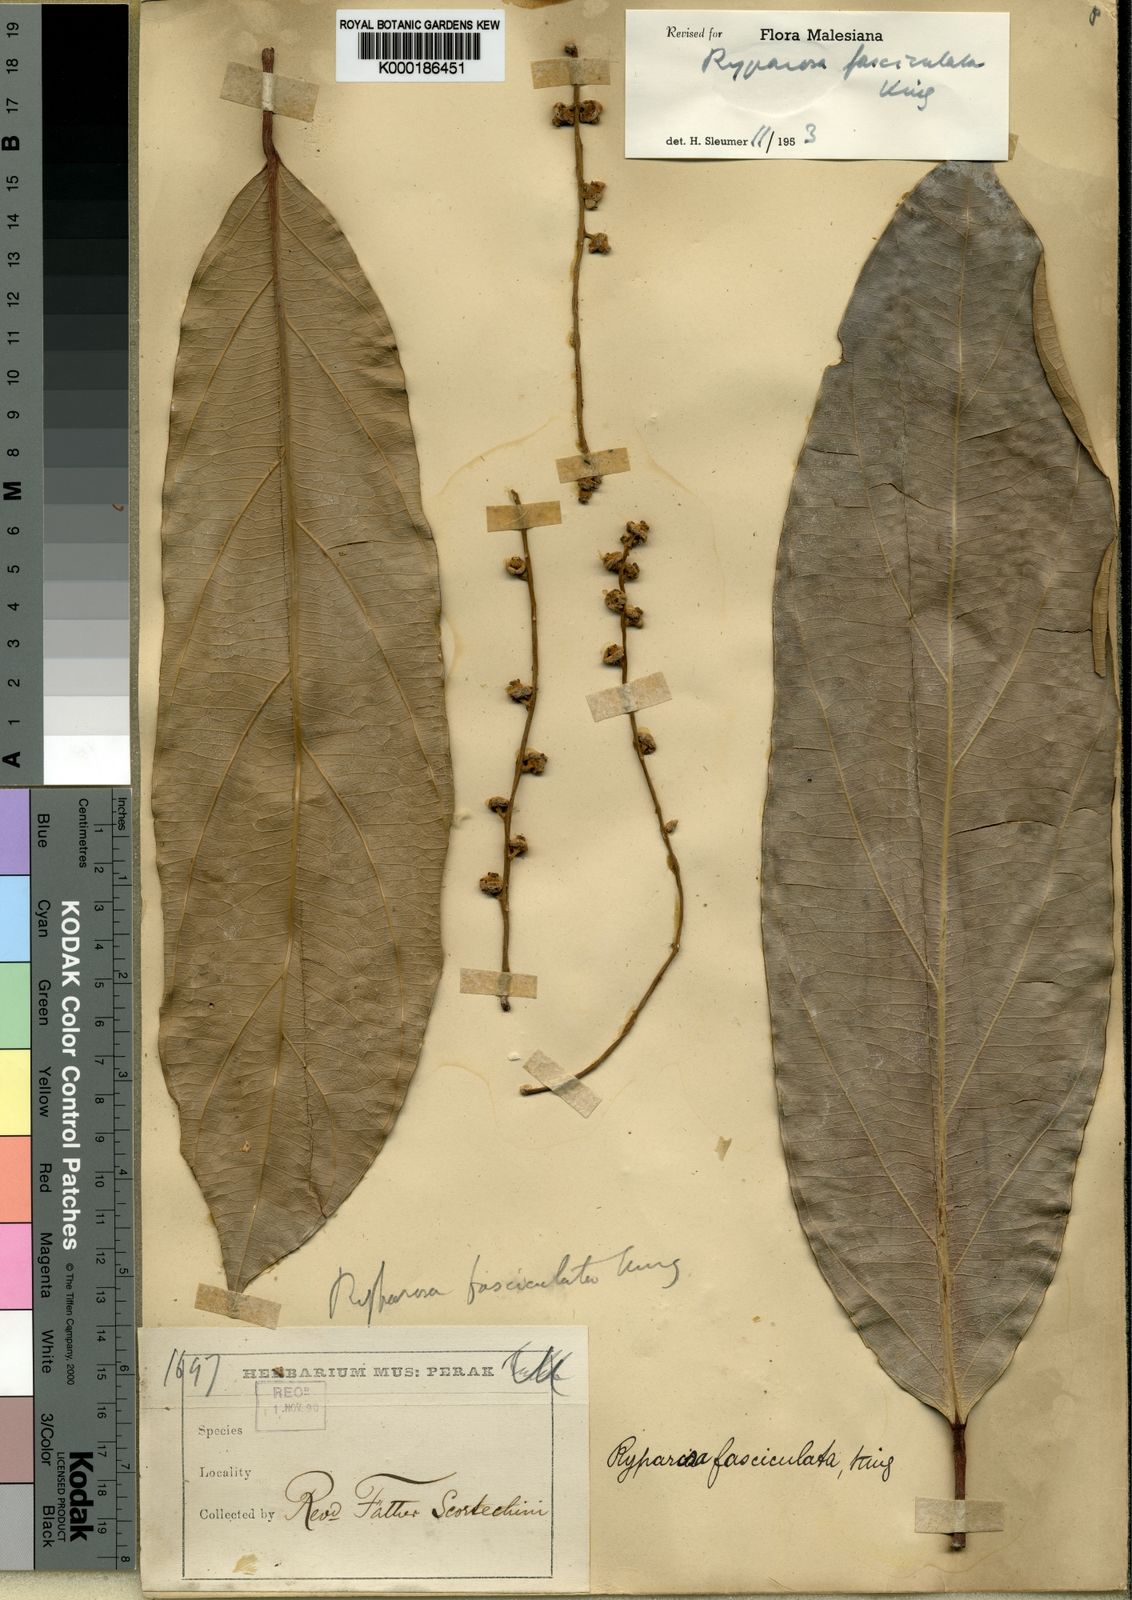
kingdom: Plantae
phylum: Tracheophyta
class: Magnoliopsida
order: Malpighiales
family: Achariaceae
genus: Ryparosa
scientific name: Ryparosa fasciculata
